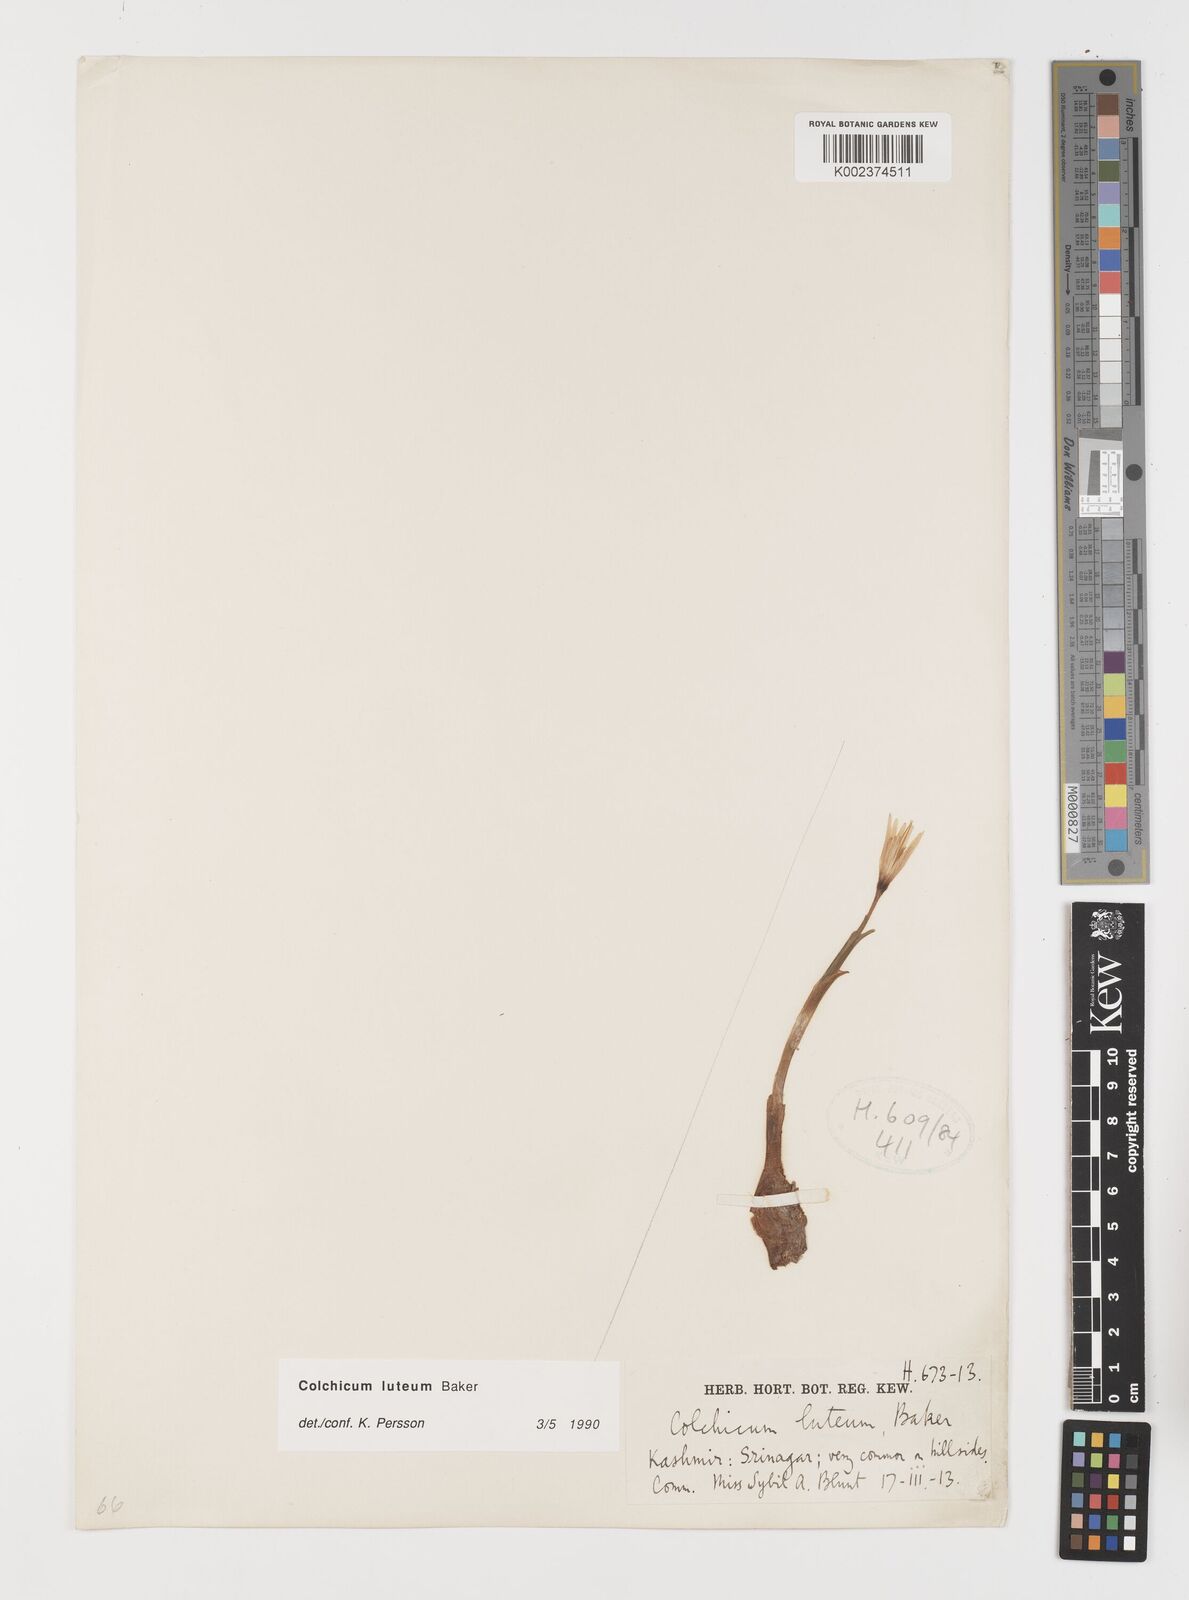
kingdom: Plantae
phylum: Tracheophyta
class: Liliopsida
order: Liliales
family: Colchicaceae
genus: Colchicum
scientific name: Colchicum luteum
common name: Indian colchicum
